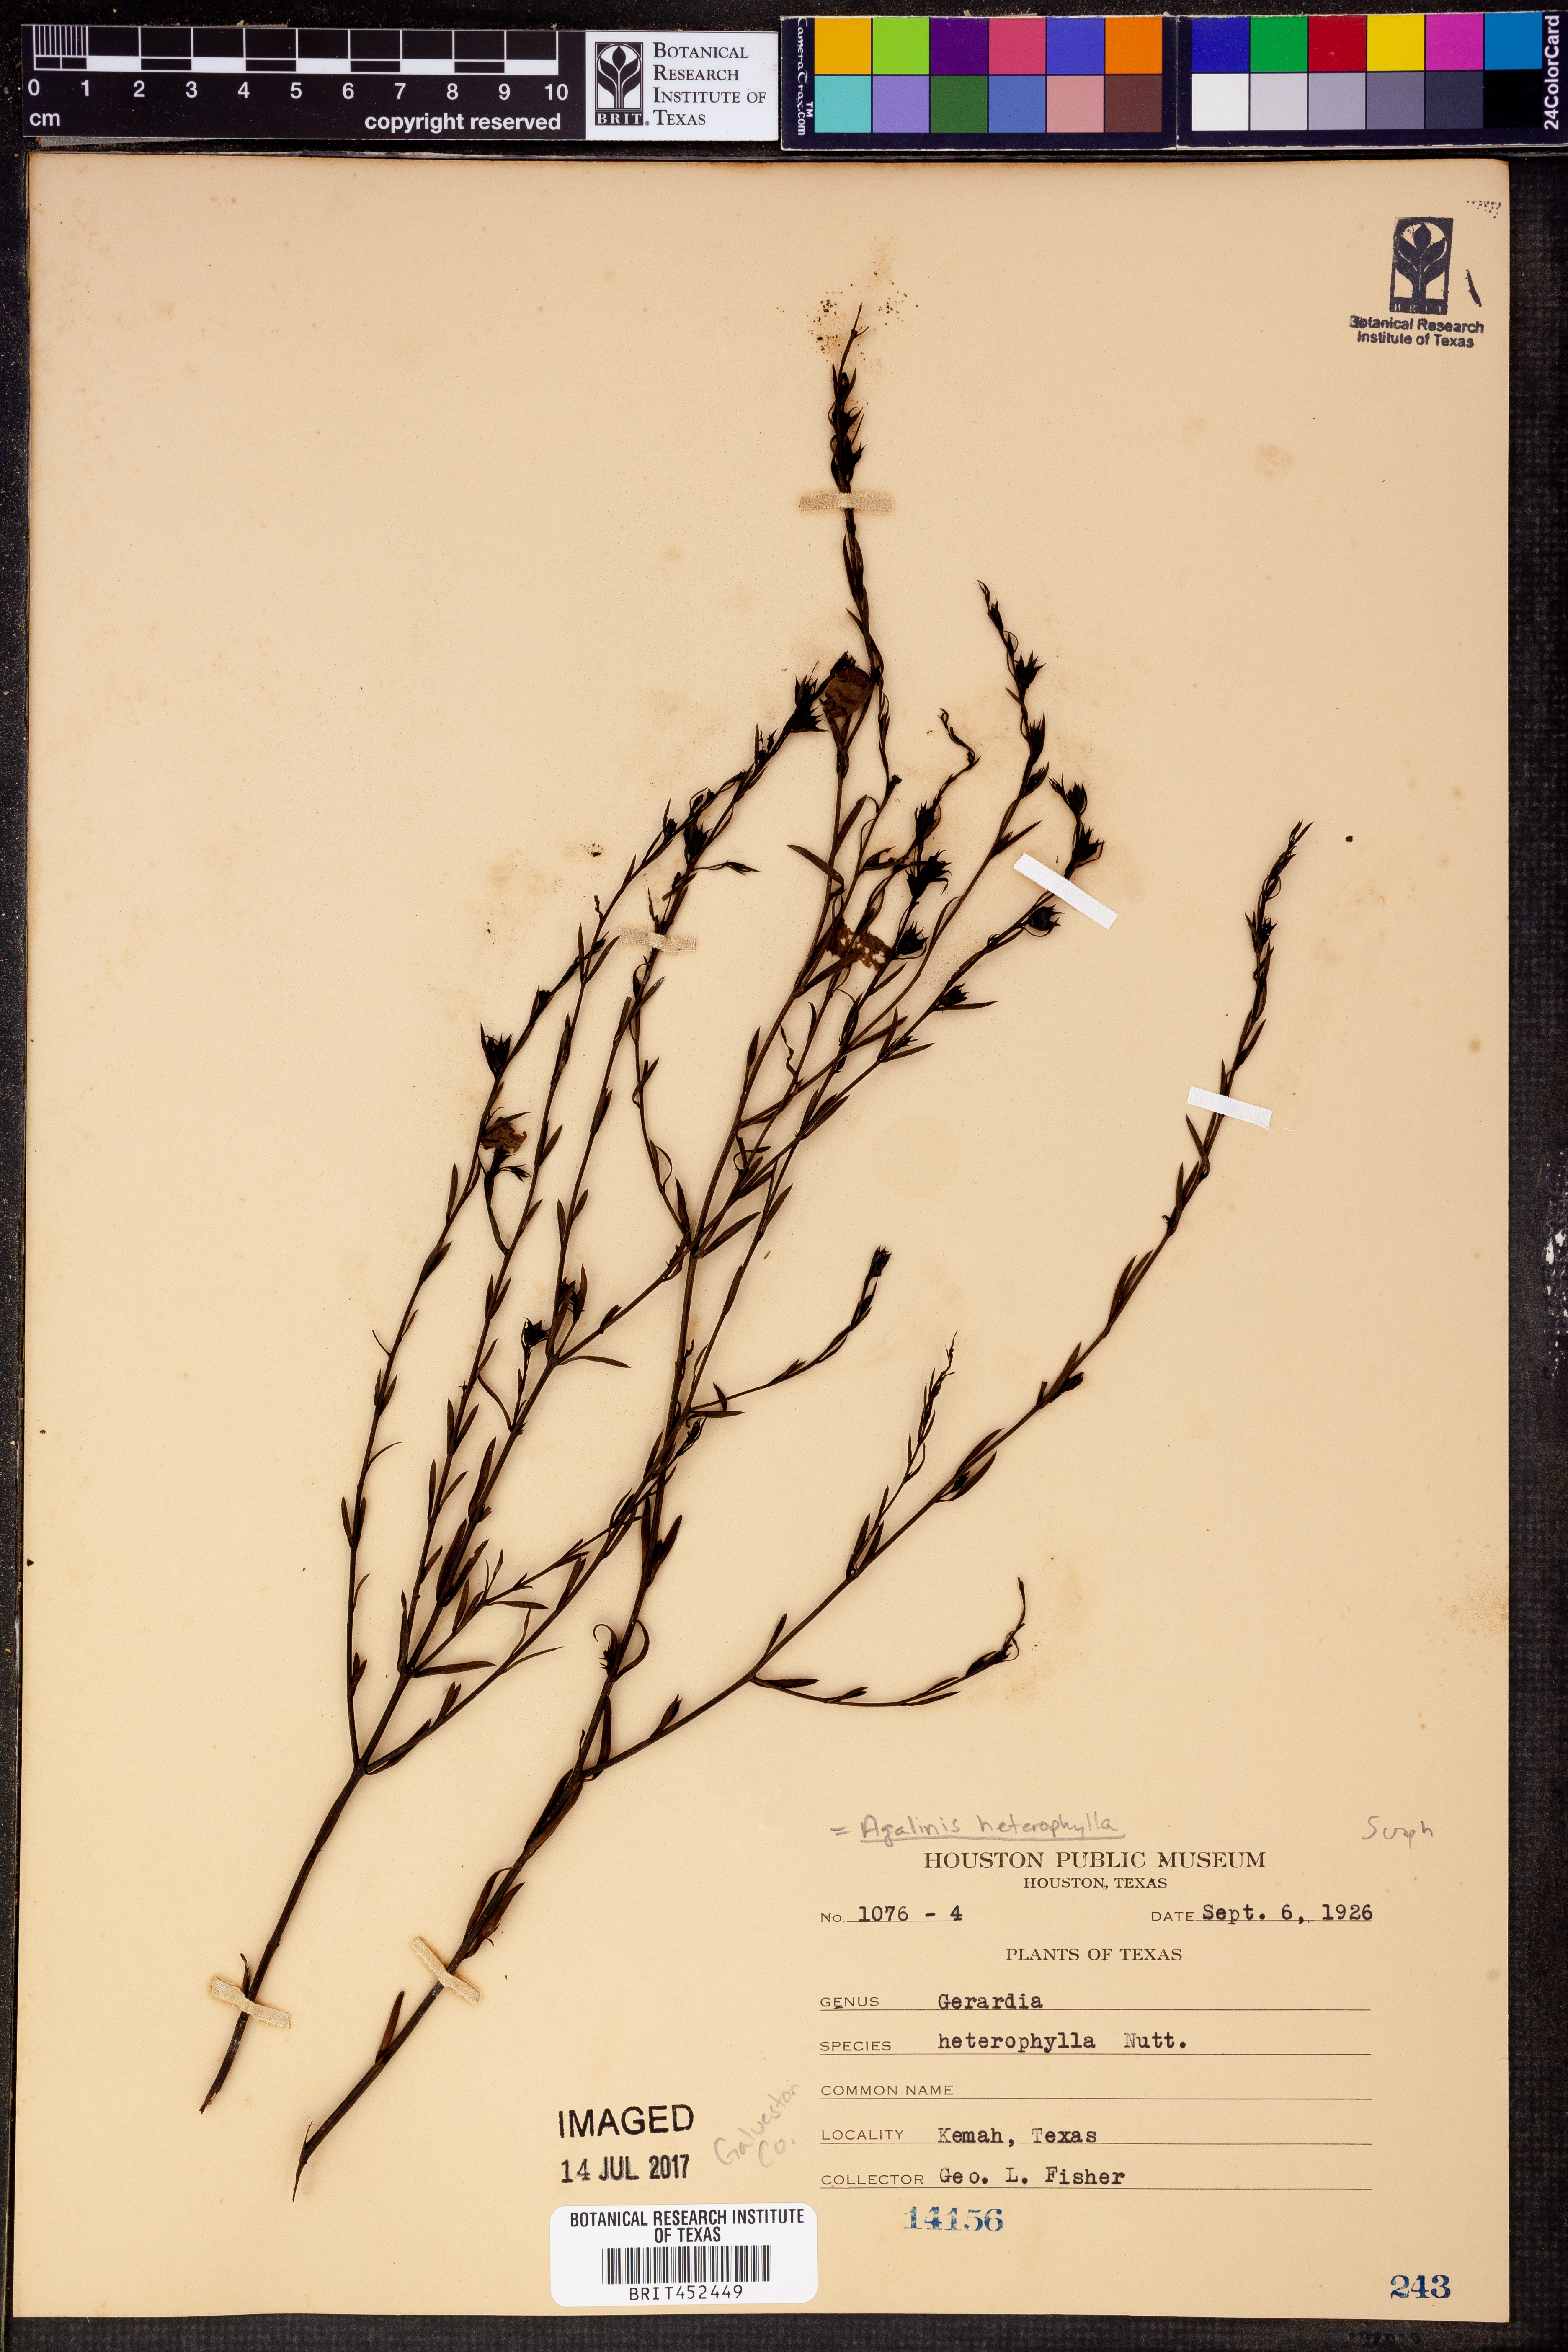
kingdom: Plantae
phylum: Tracheophyta
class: Magnoliopsida
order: Lamiales
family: Orobanchaceae
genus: Agalinis
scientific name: Agalinis heterophylla
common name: Prairie agalinis
